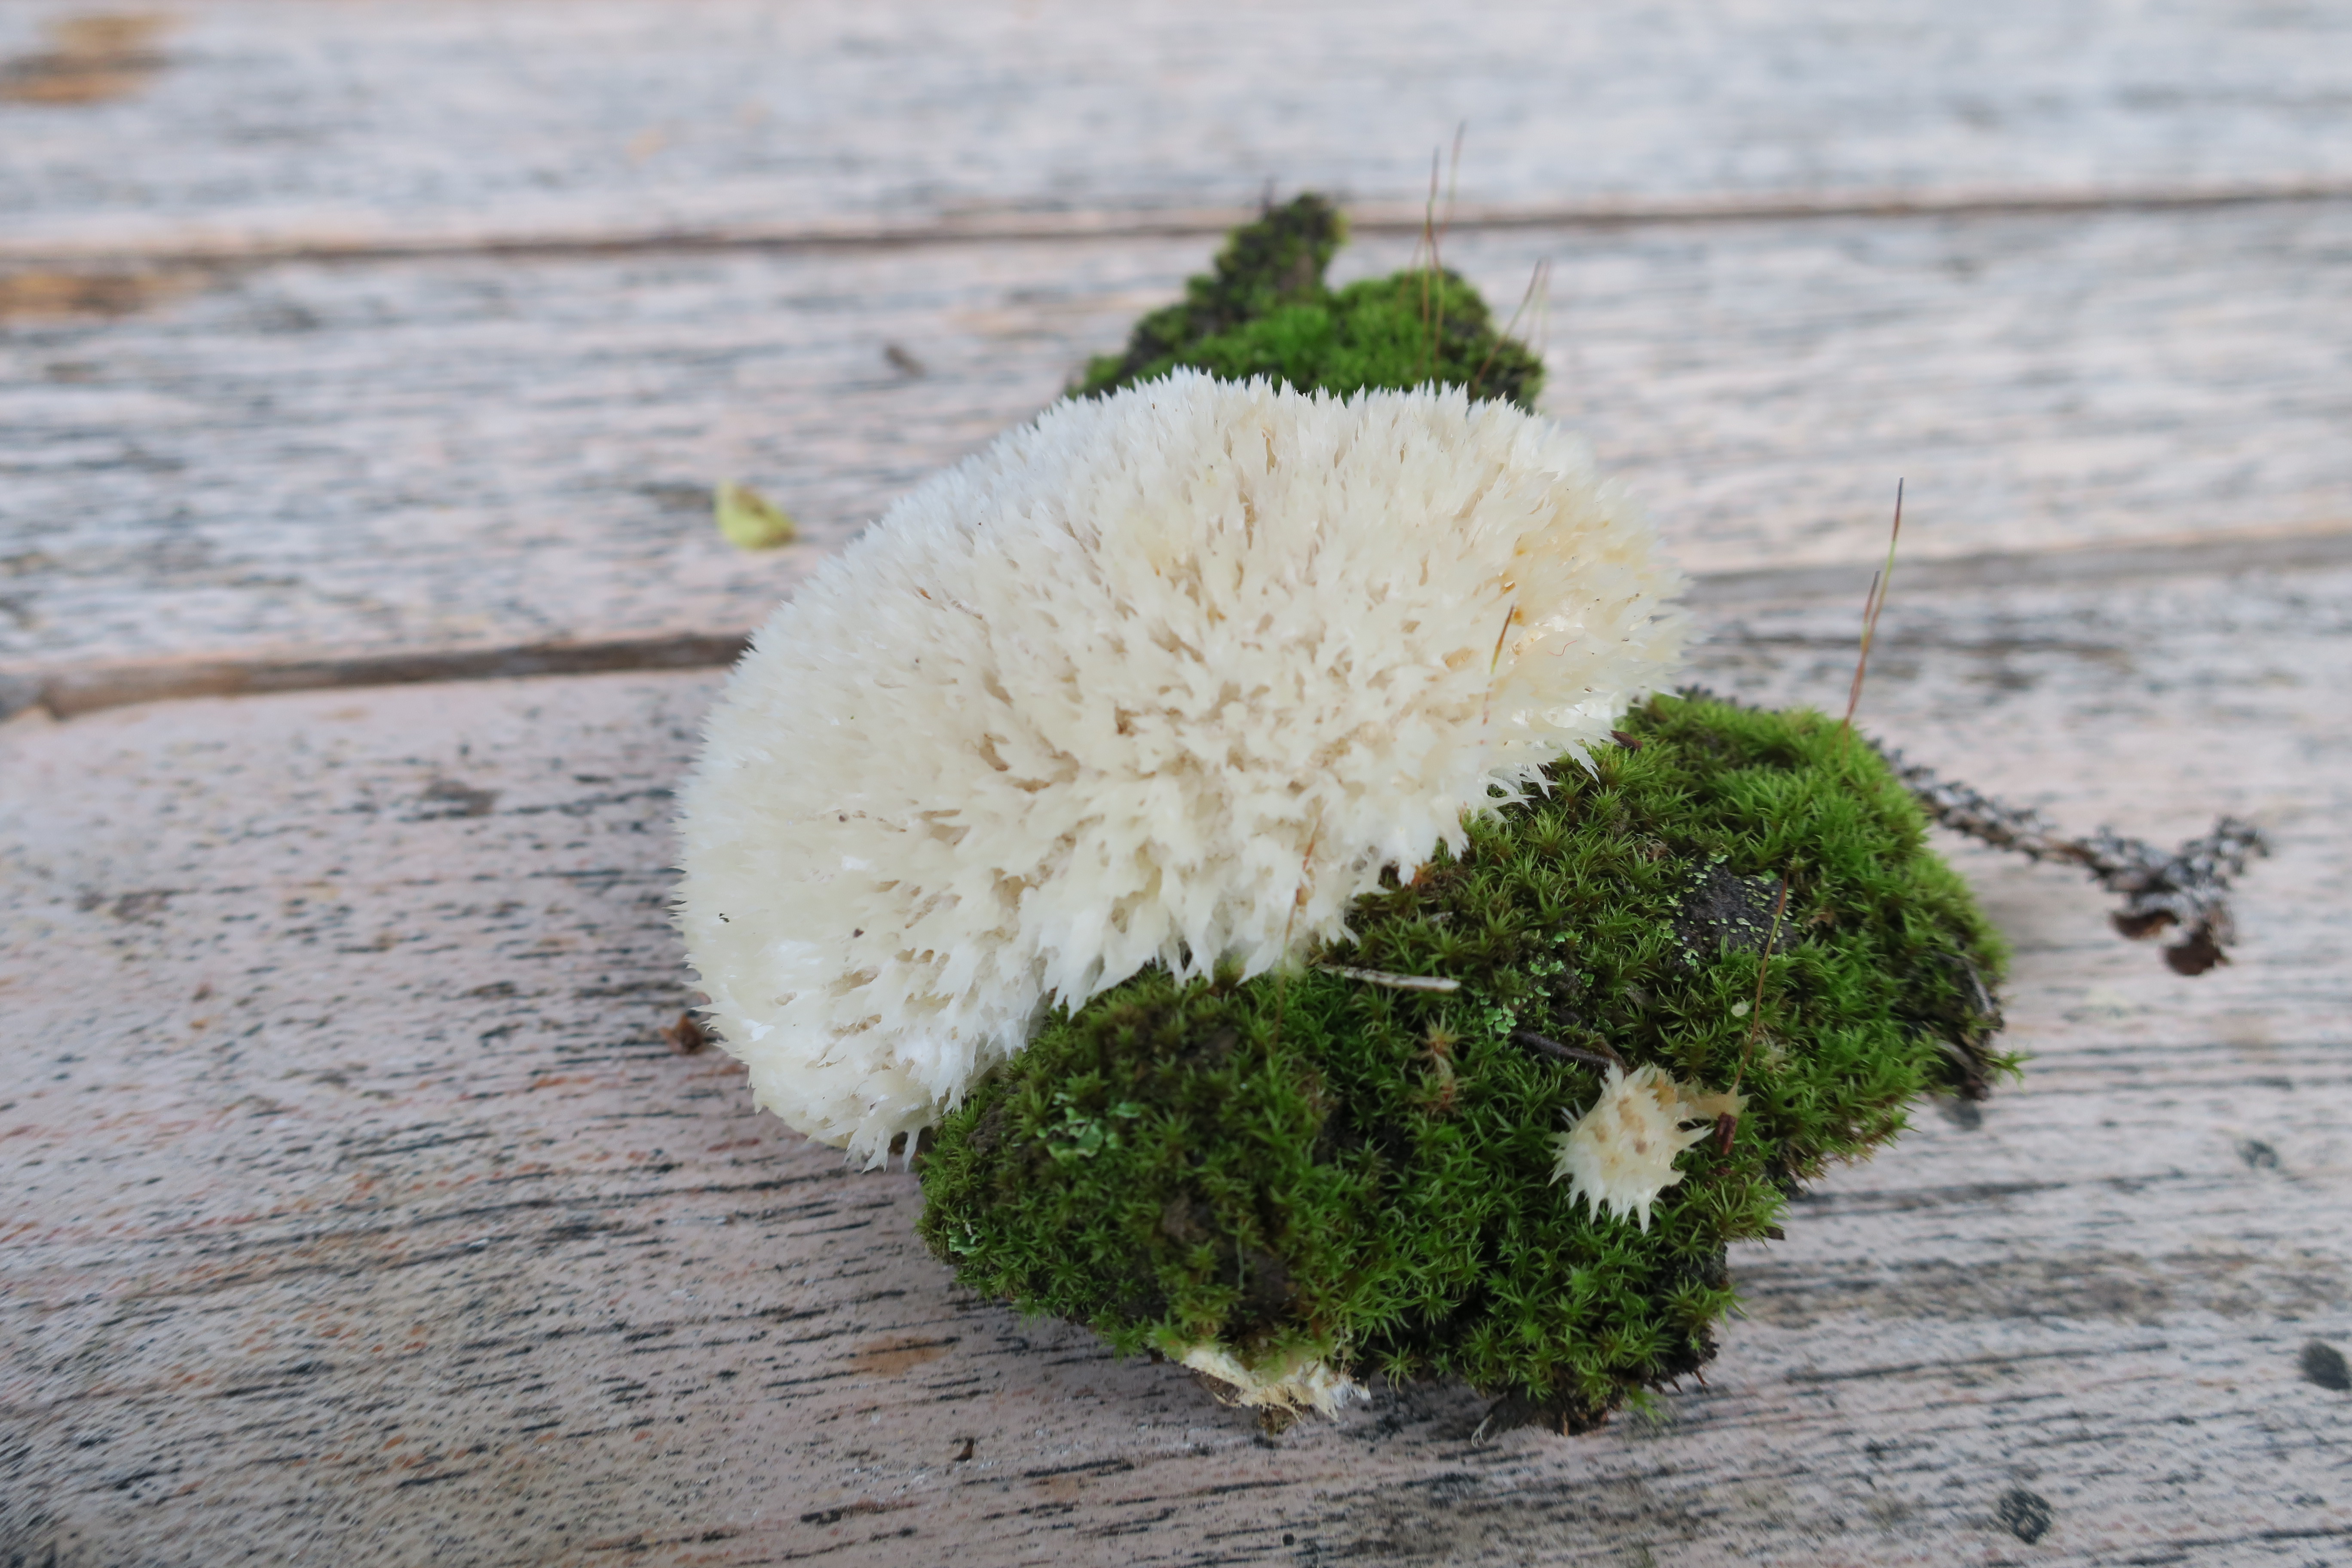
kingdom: Fungi
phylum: Basidiomycota
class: Agaricomycetes
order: Polyporales
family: Dacryobolaceae
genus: Postia
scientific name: Postia ptychogaster
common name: Powderpuff bracket
